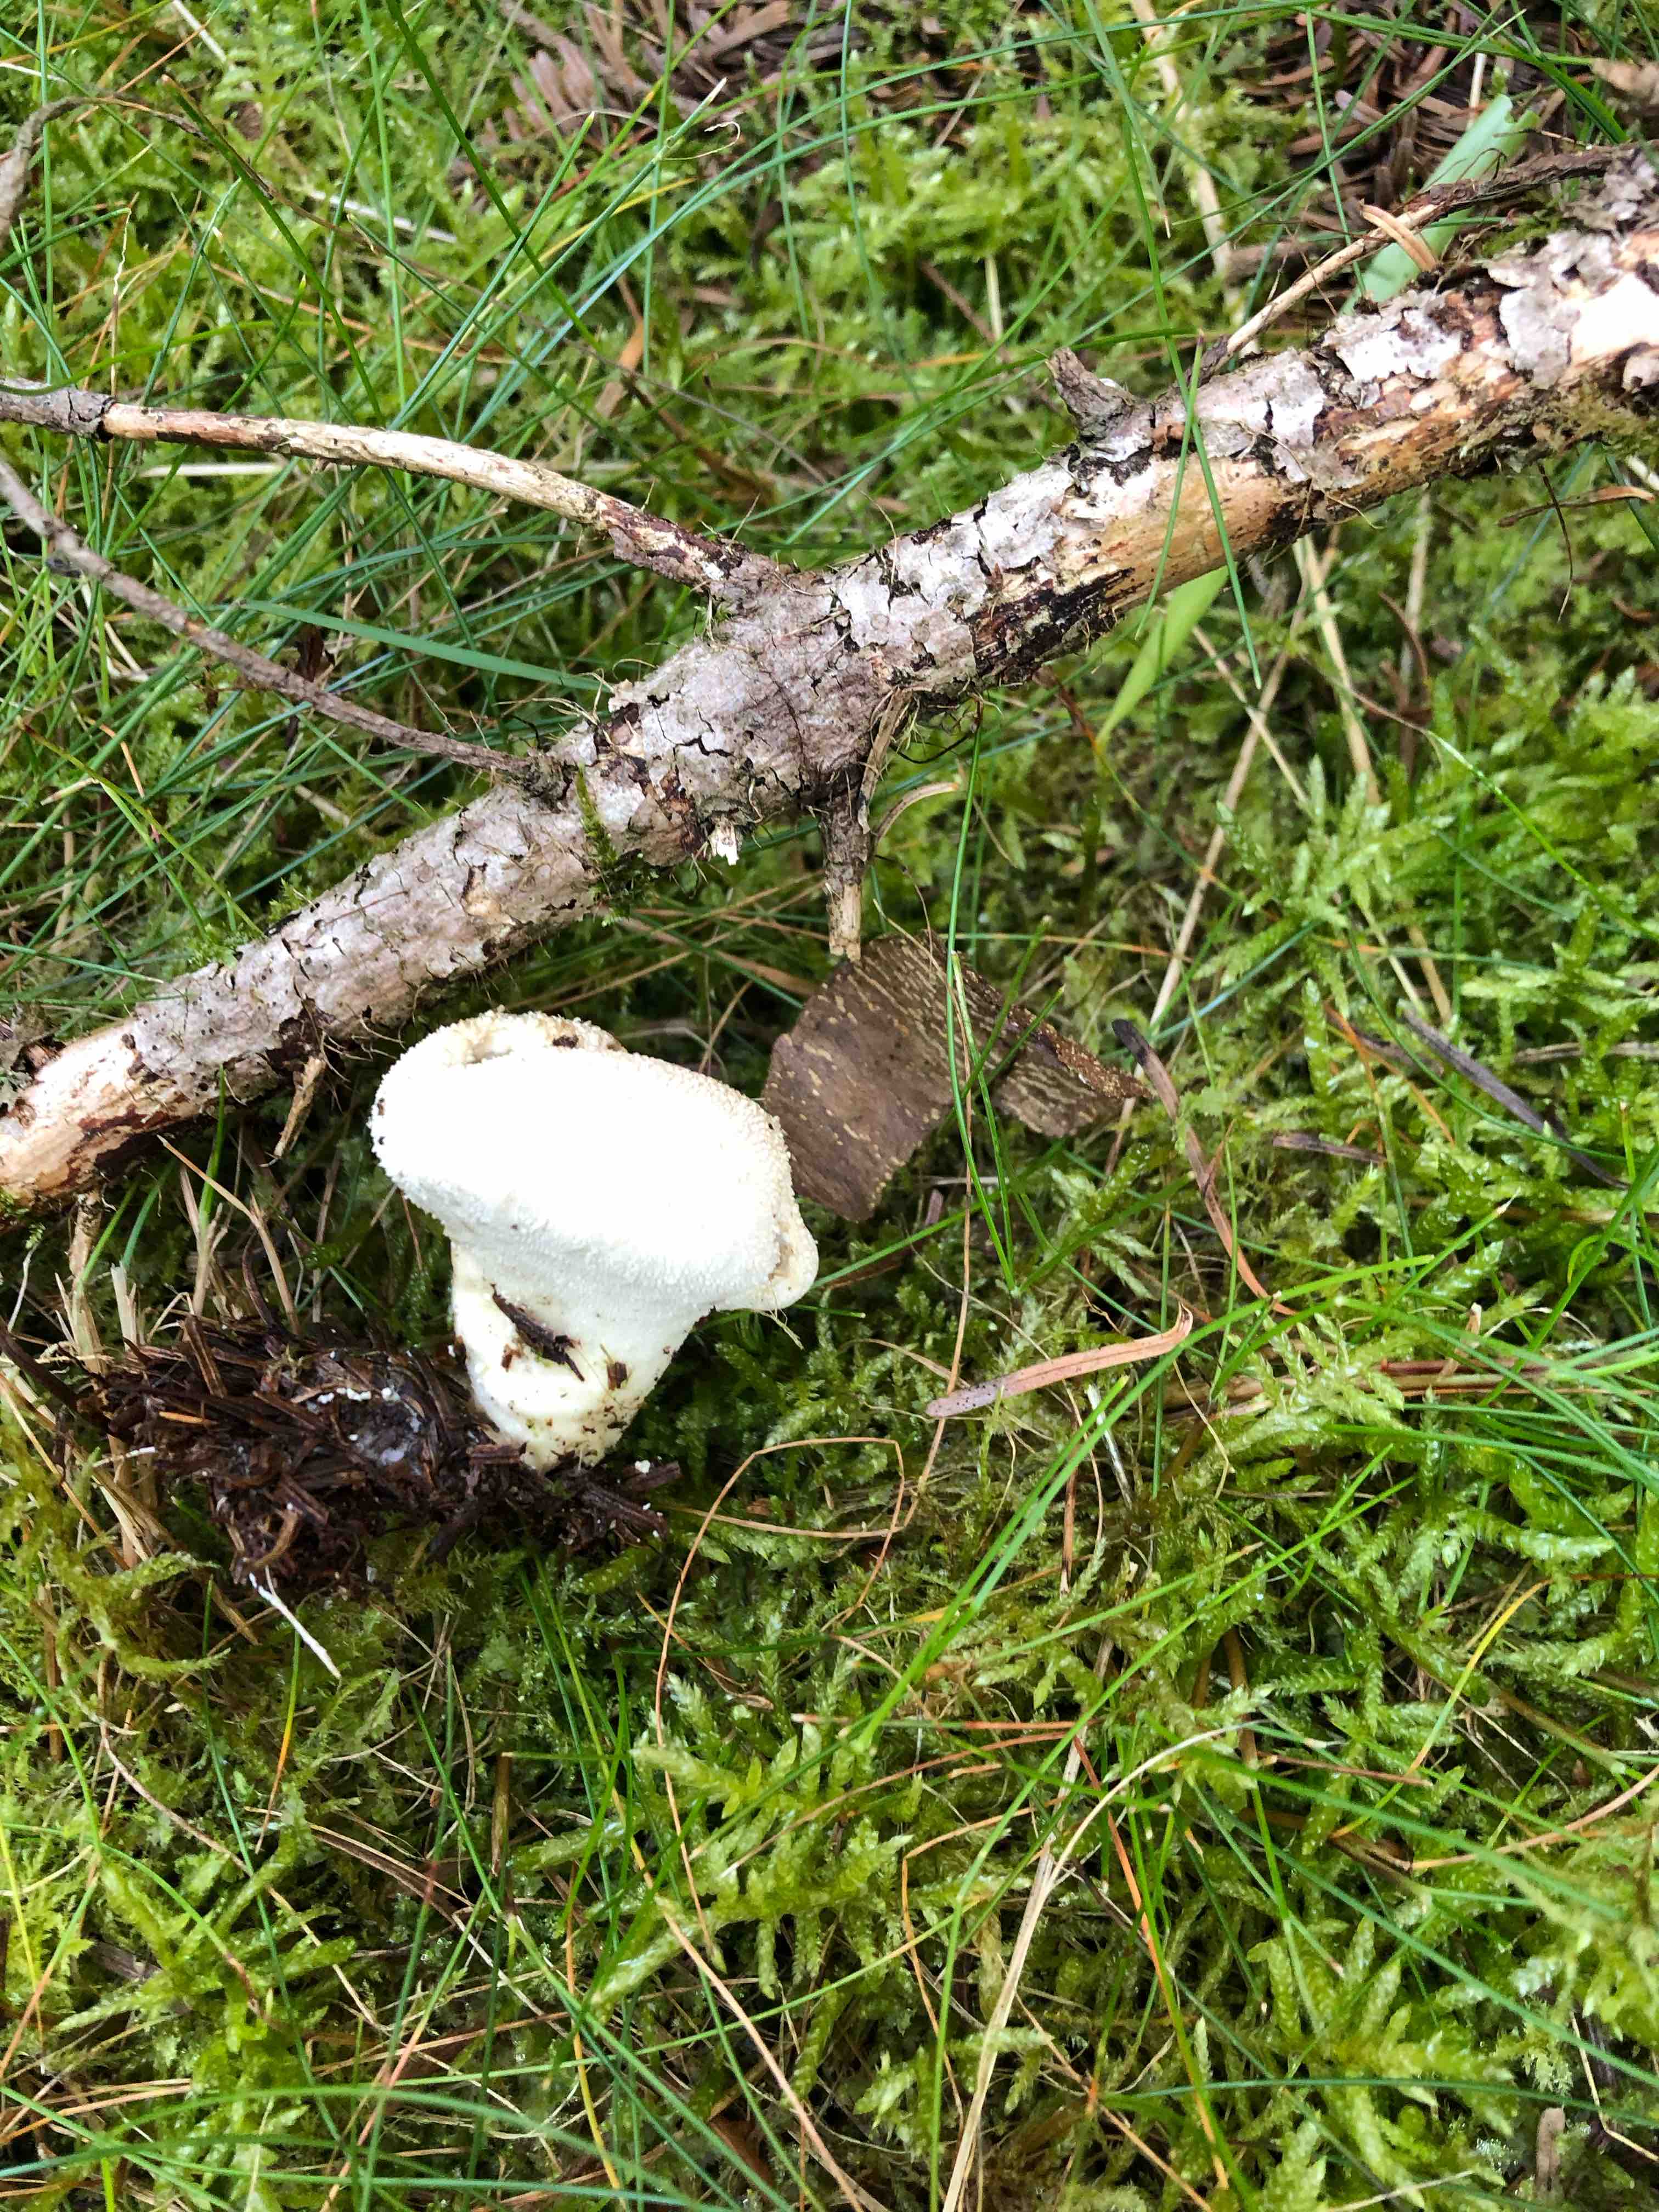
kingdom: Fungi
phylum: Basidiomycota
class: Agaricomycetes
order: Agaricales
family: Lycoperdaceae
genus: Lycoperdon
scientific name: Lycoperdon perlatum
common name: krystal-støvbold
